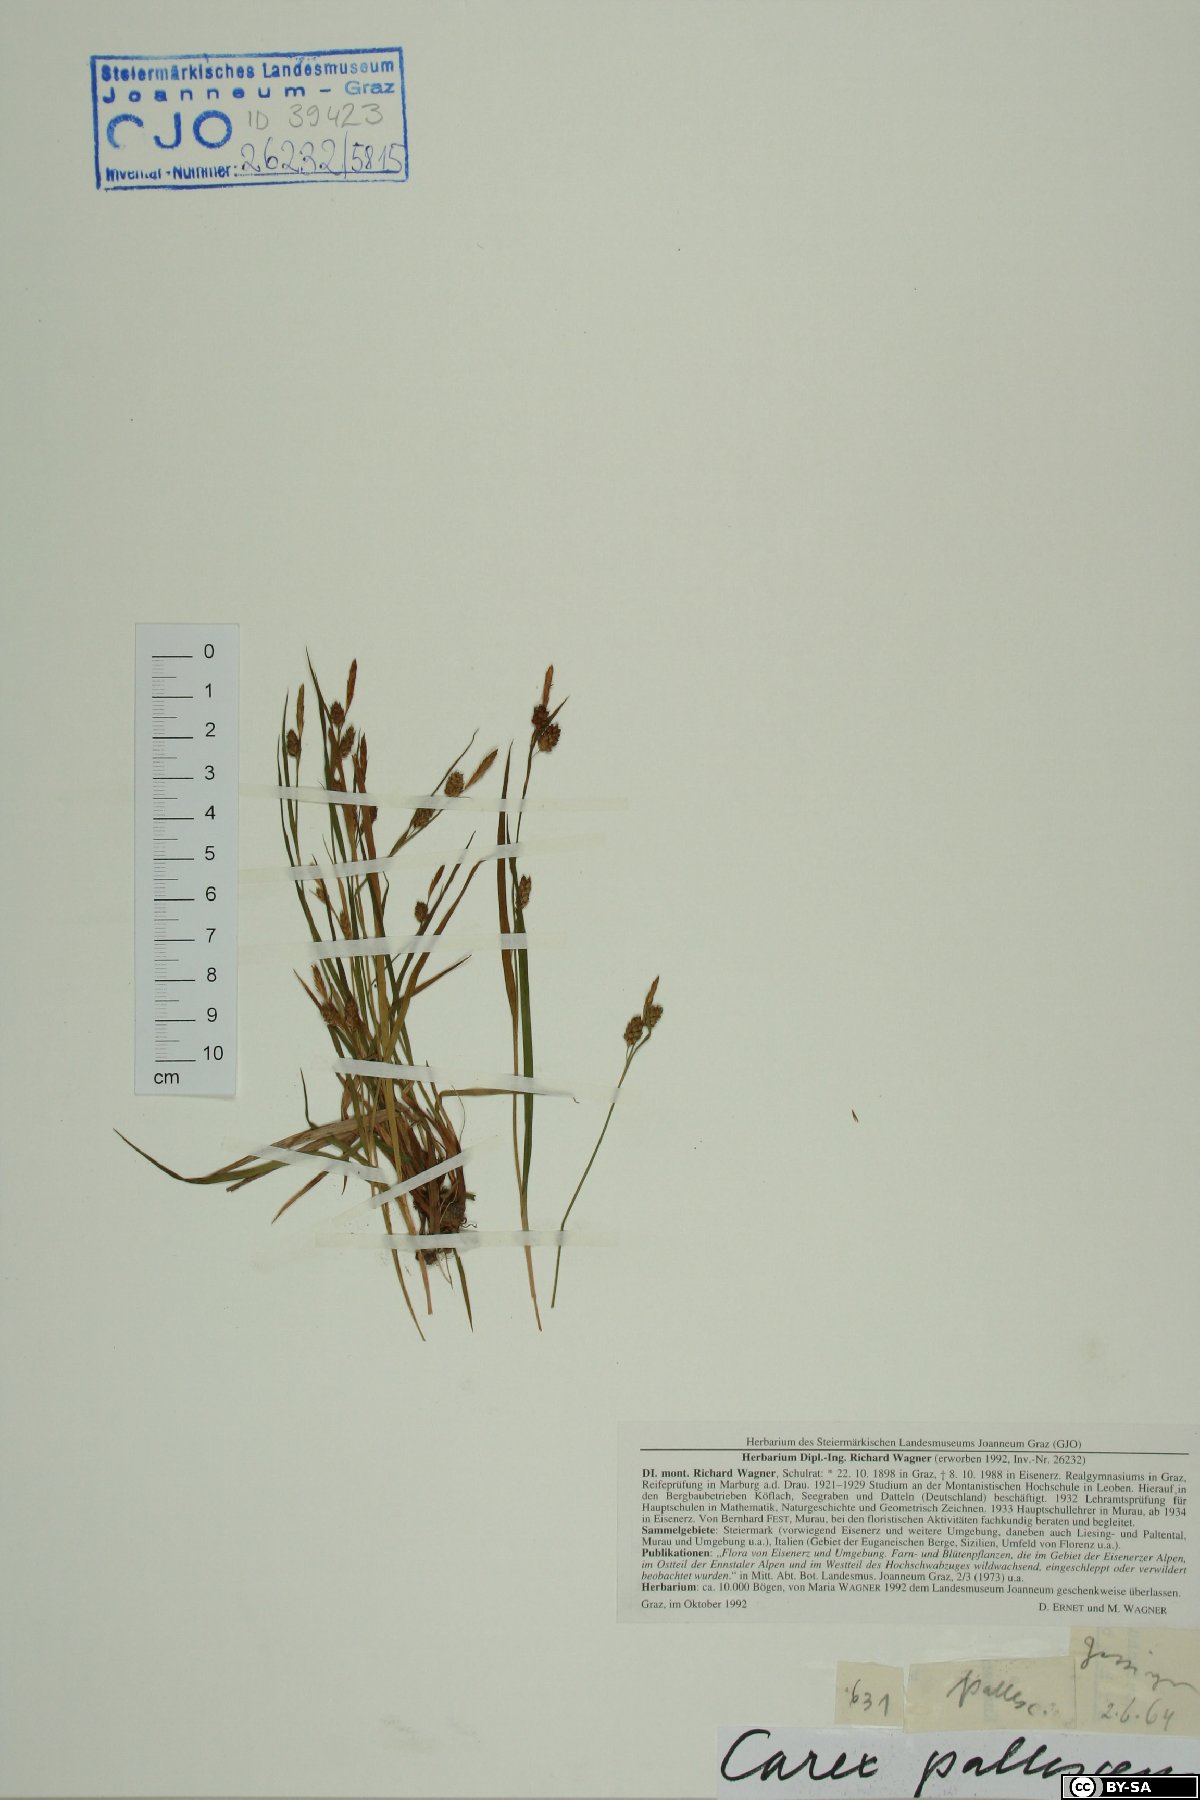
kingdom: Plantae
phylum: Tracheophyta
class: Liliopsida
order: Poales
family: Cyperaceae
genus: Carex
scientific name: Carex pallescens
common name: Pale sedge
